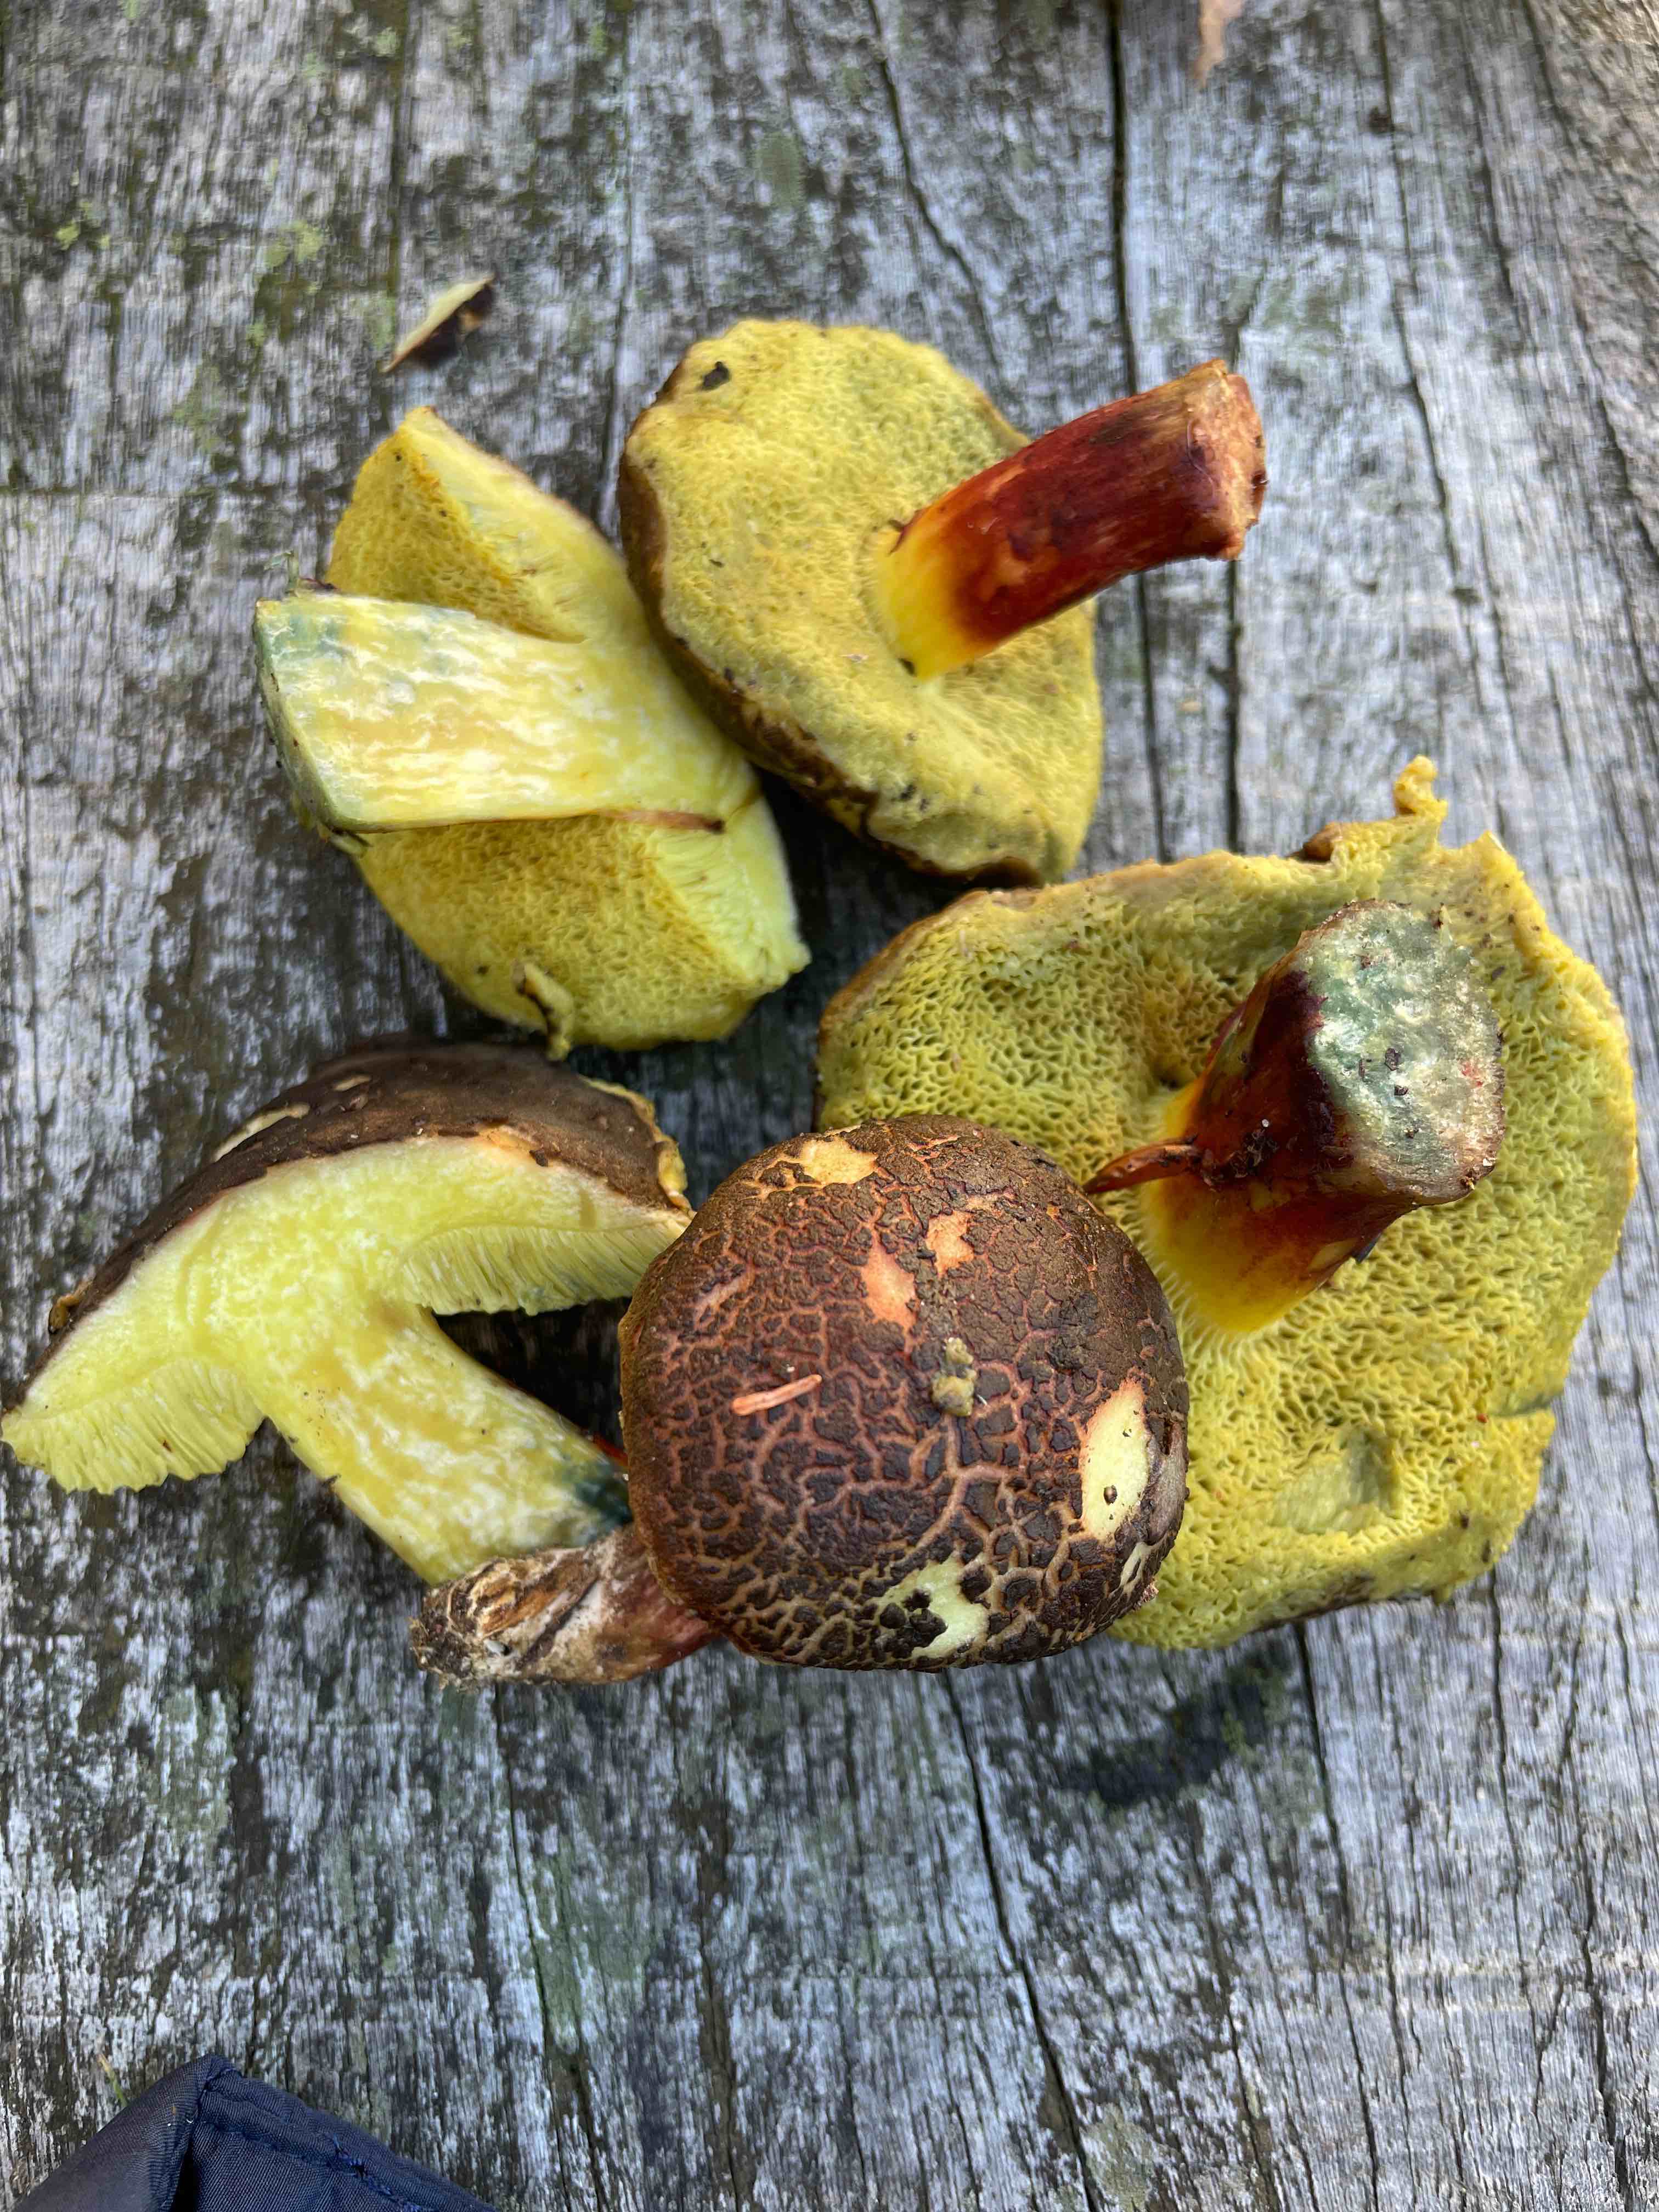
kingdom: Fungi
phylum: Basidiomycota
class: Agaricomycetes
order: Boletales
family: Boletaceae
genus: Xerocomellus
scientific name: Xerocomellus cisalpinus
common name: finsprukken rørhat
